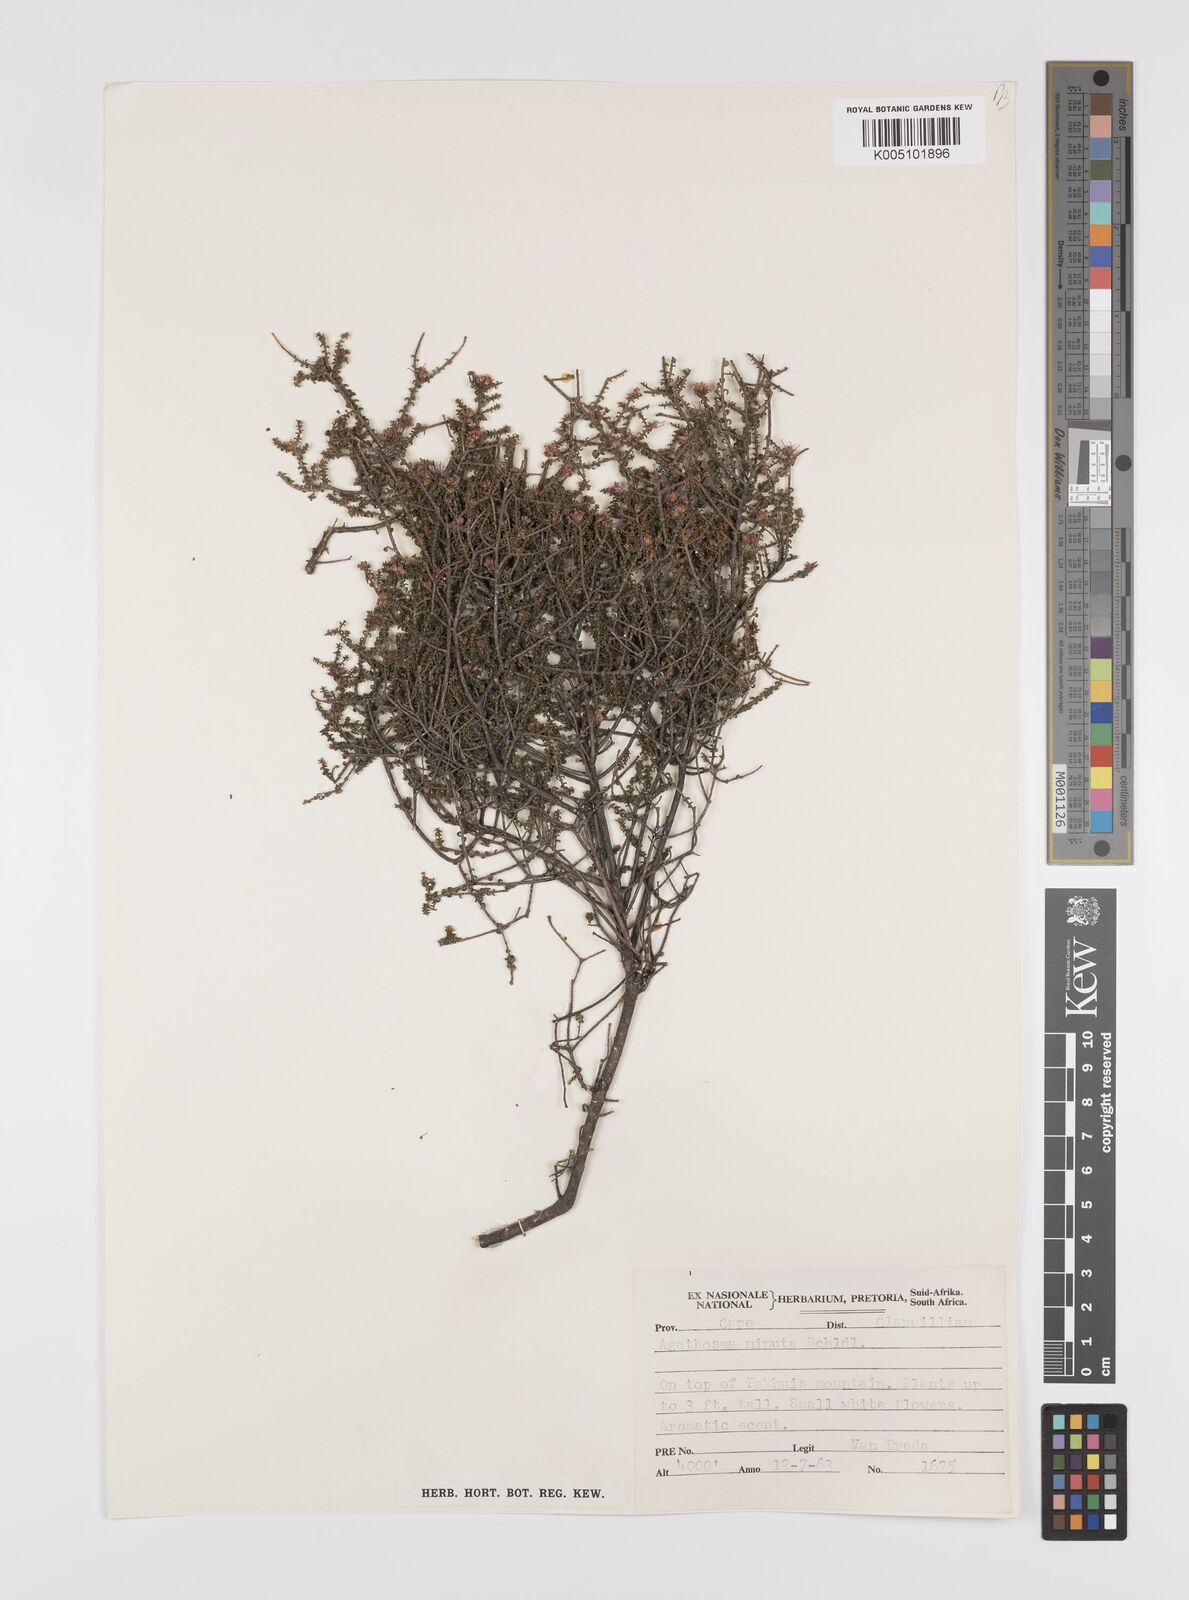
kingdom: Plantae
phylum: Tracheophyta
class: Magnoliopsida
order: Sapindales
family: Rutaceae
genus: Agathosma
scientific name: Agathosma minuta
